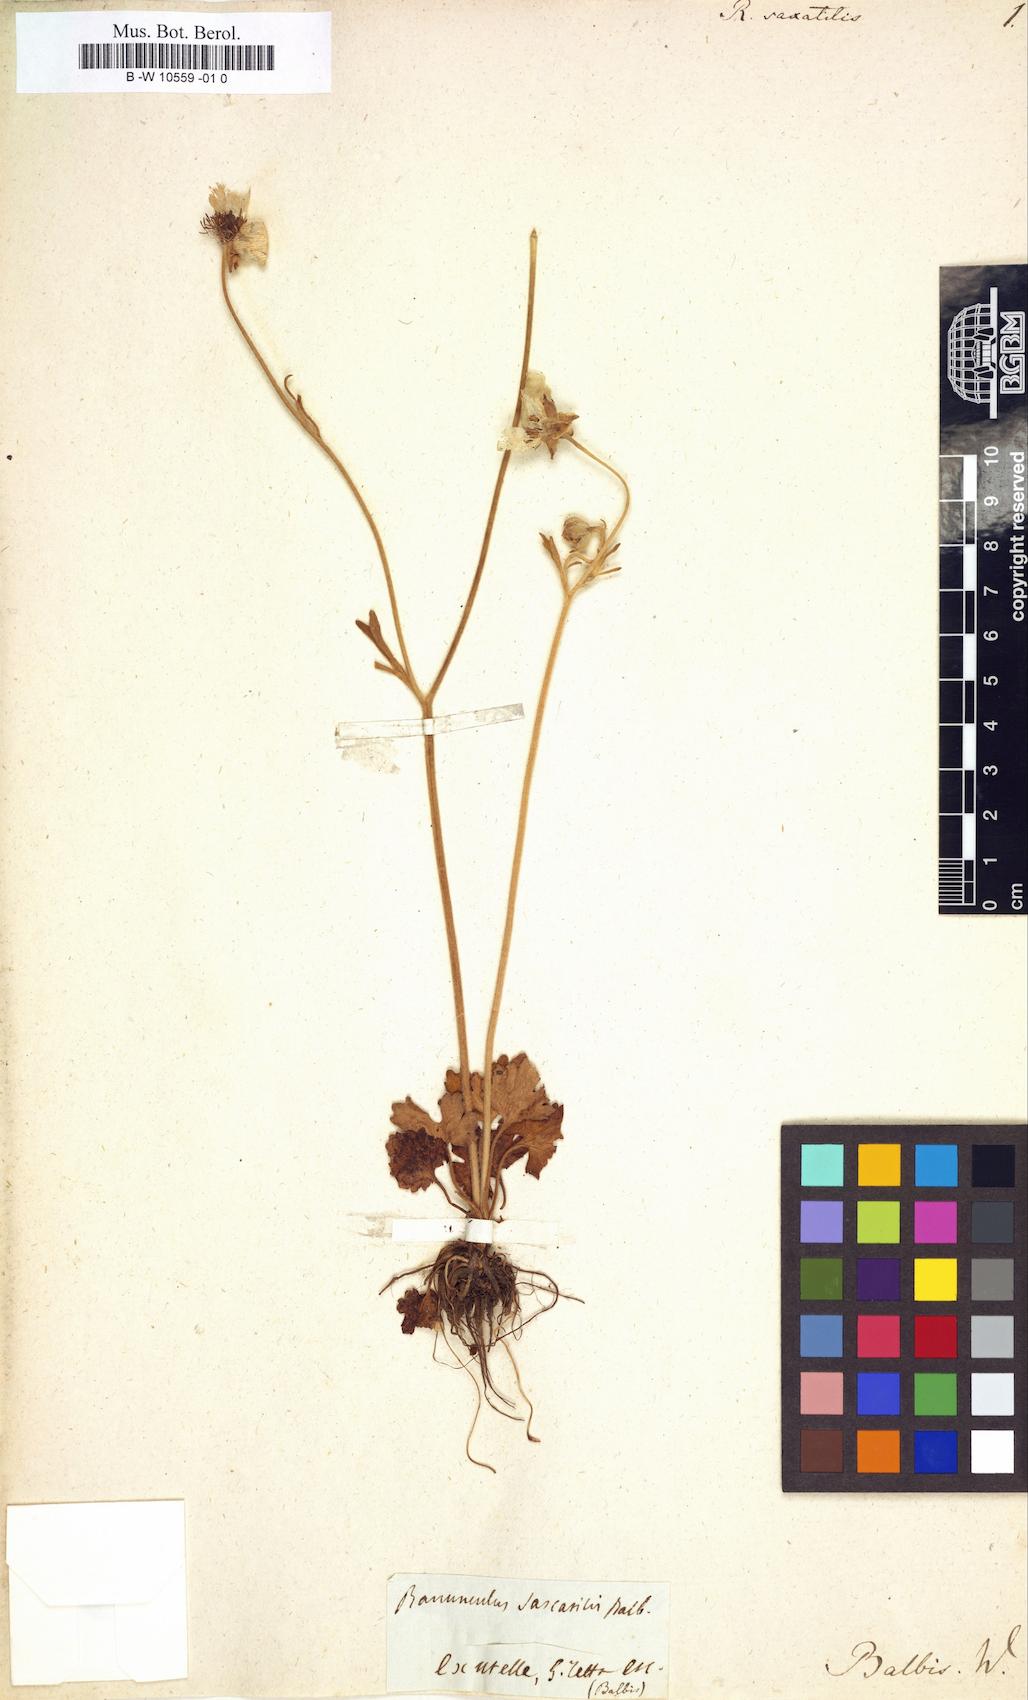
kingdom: Plantae
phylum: Tracheophyta
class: Magnoliopsida
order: Ranunculales
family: Ranunculaceae
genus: Ranunculus
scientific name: Ranunculus
